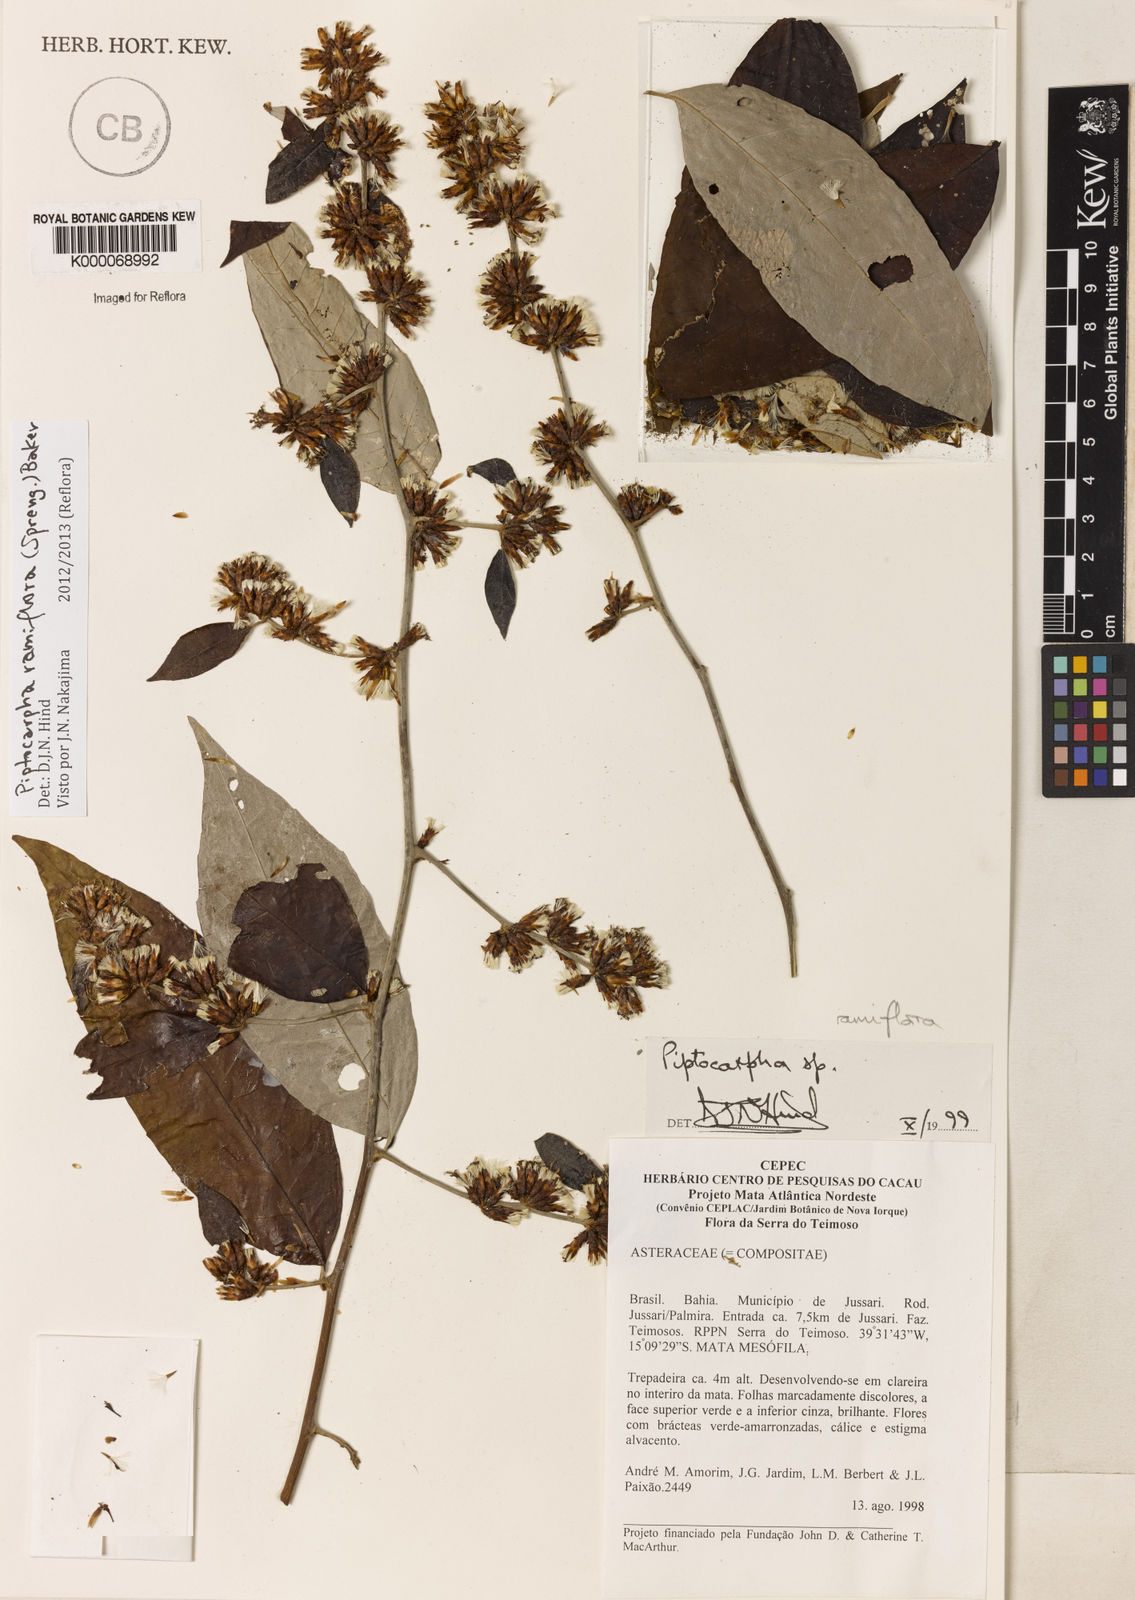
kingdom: Plantae
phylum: Tracheophyta
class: Magnoliopsida
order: Asterales
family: Asteraceae
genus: Piptocarpha
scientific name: Piptocarpha
